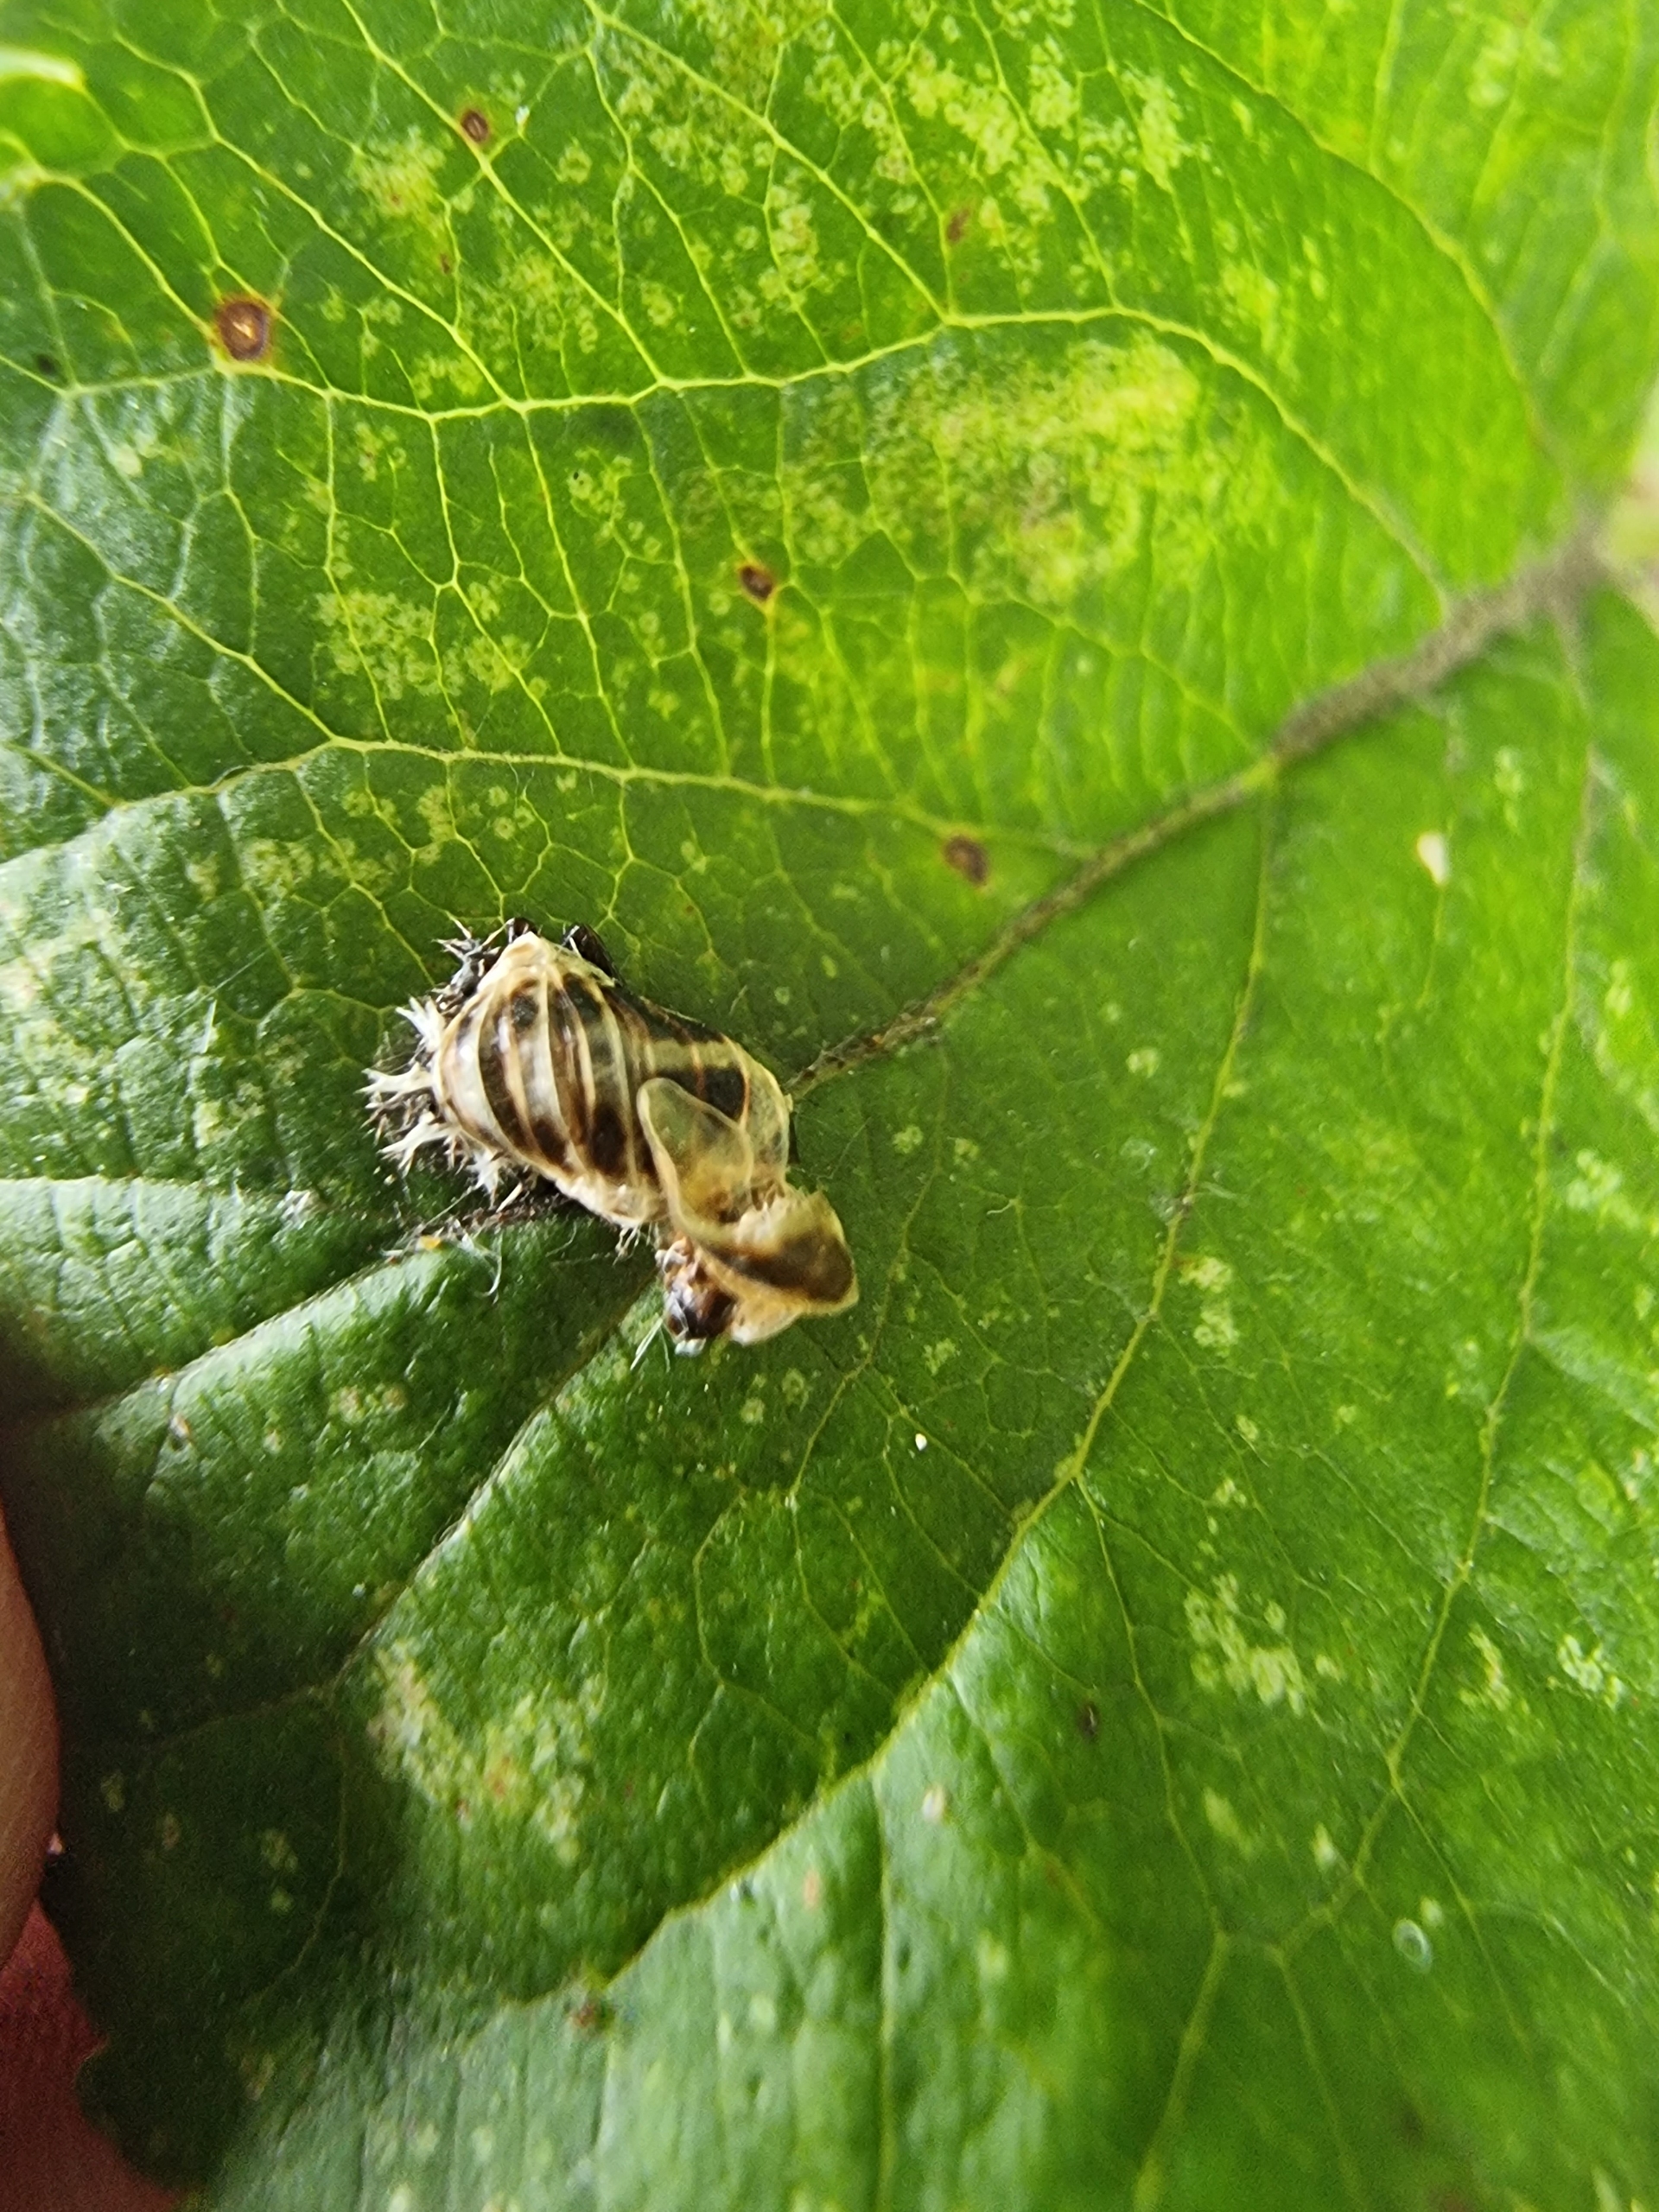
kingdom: Animalia
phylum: Arthropoda
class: Insecta
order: Coleoptera
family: Coccinellidae
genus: Harmonia
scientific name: Harmonia axyridis
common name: Harlekinmariehøne
